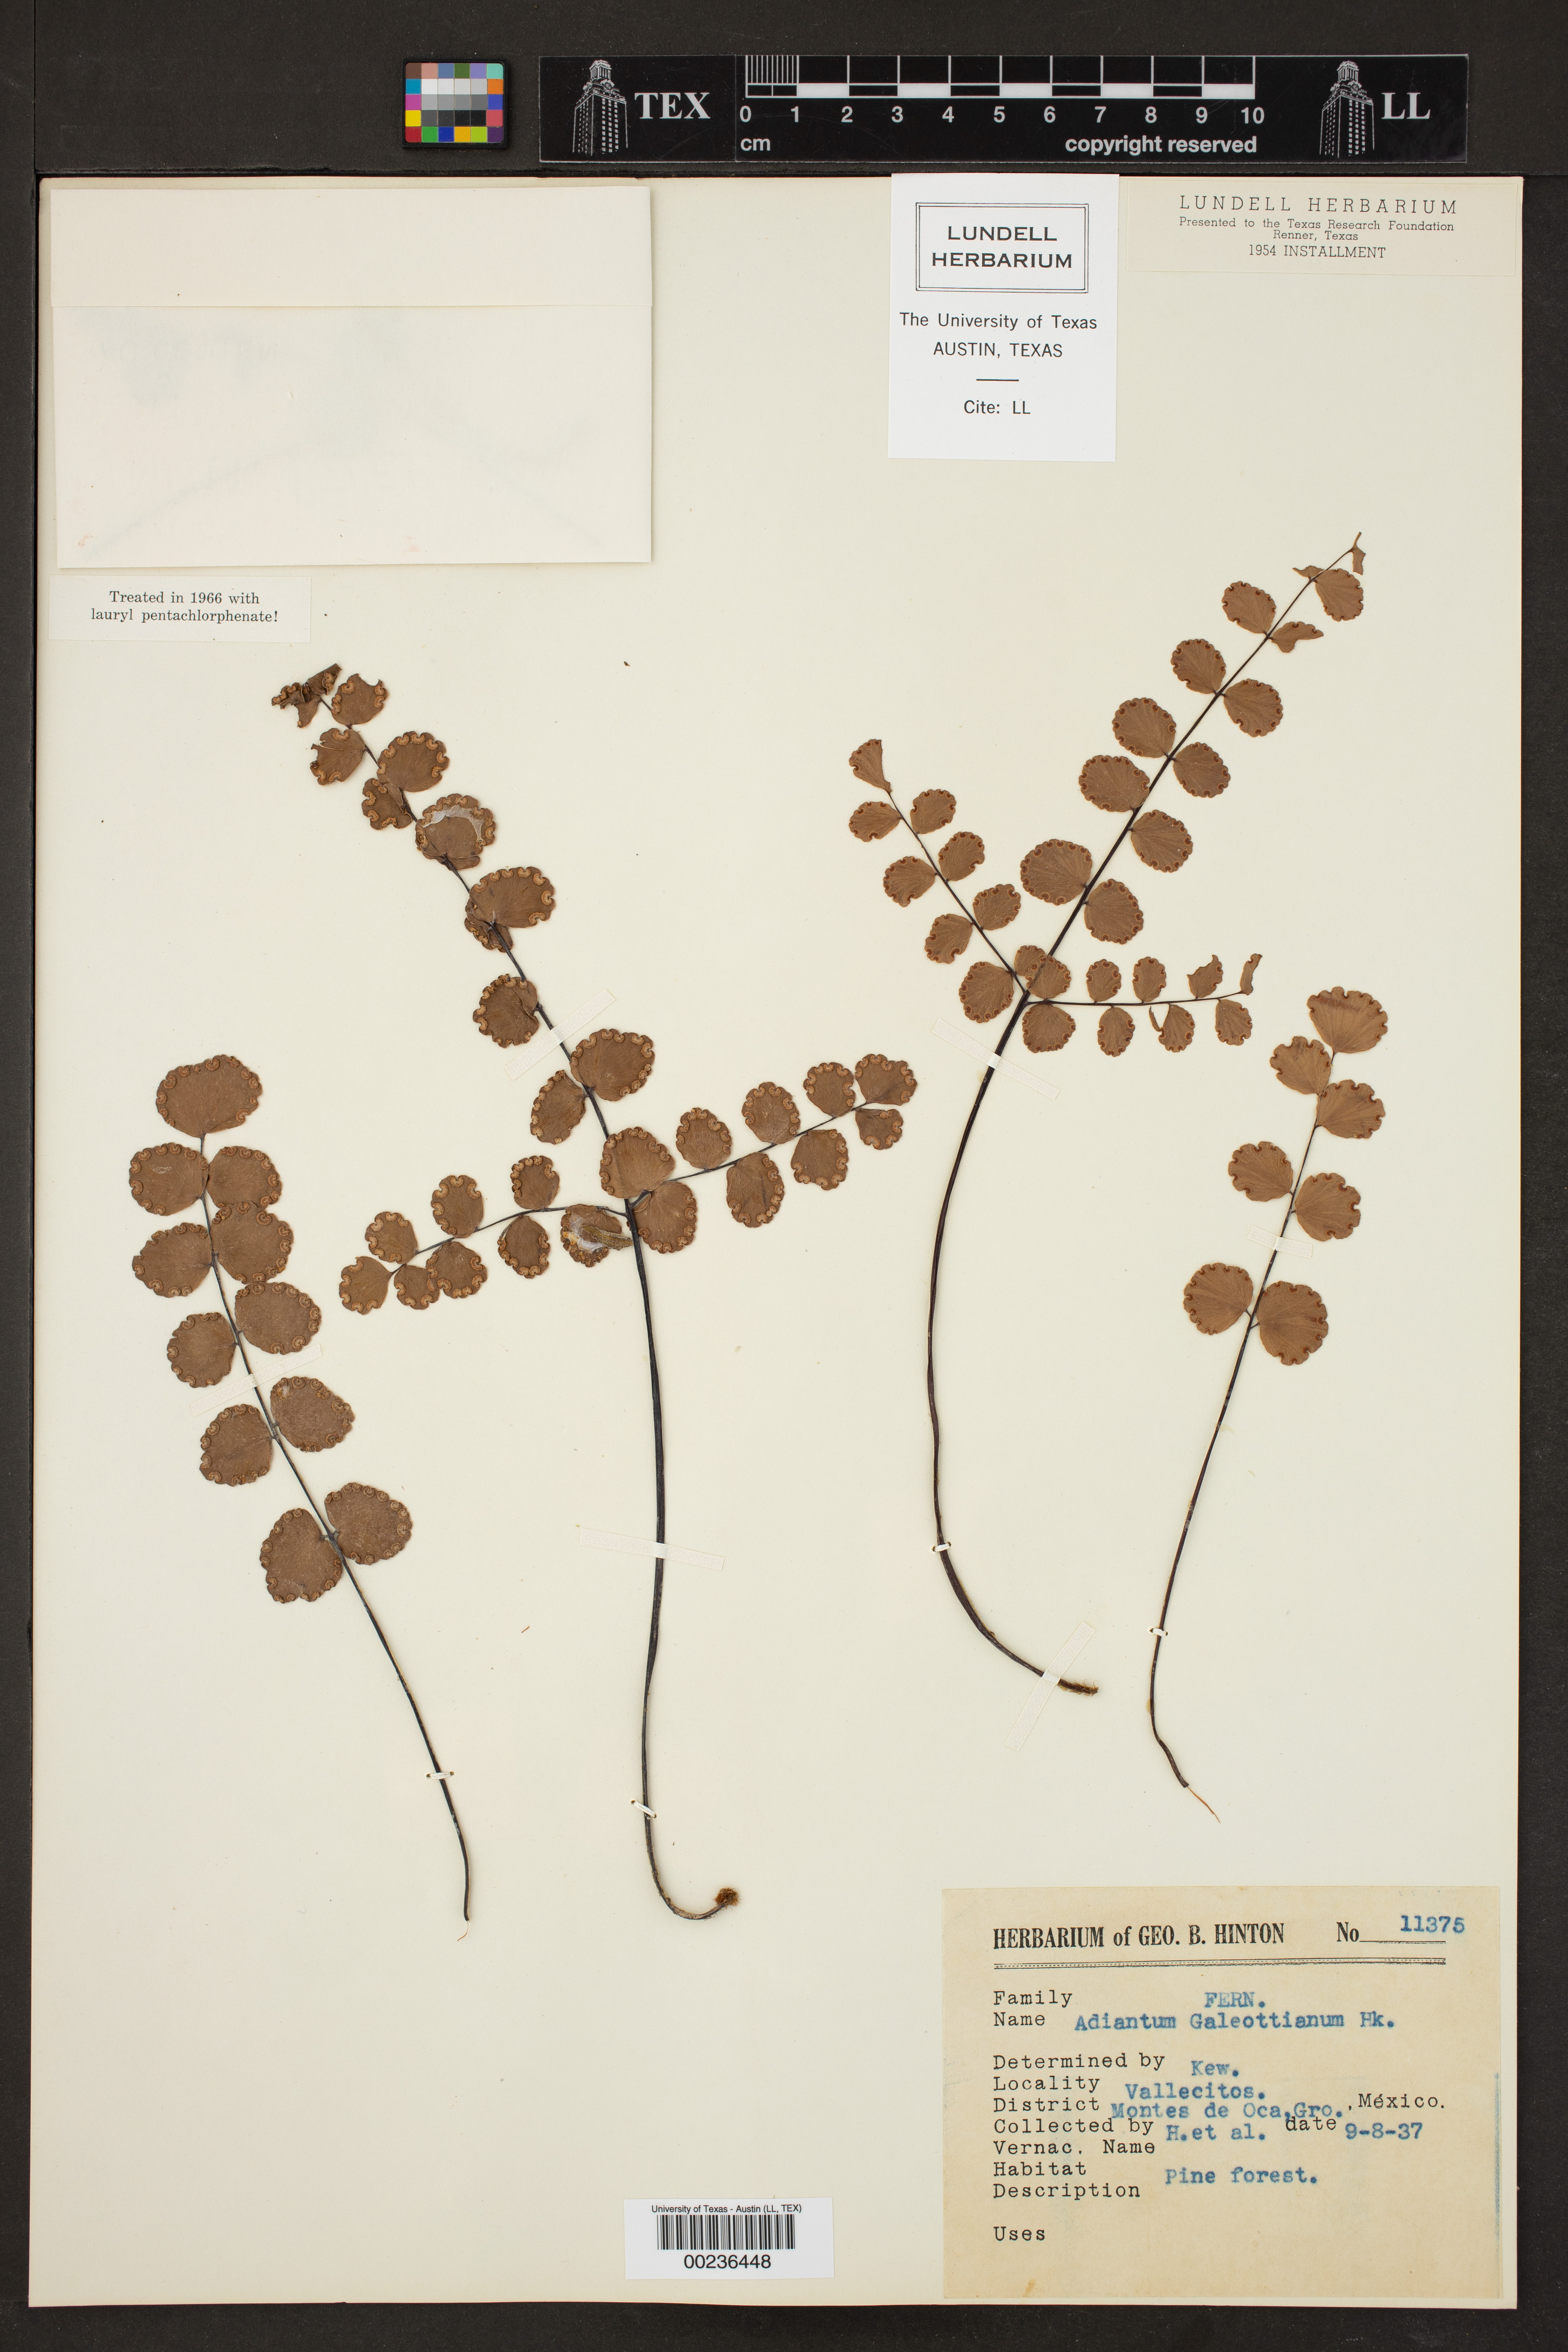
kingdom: Plantae
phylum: Tracheophyta
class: Polypodiopsida
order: Polypodiales
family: Pteridaceae
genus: Adiantum
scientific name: Adiantum galeottianum
